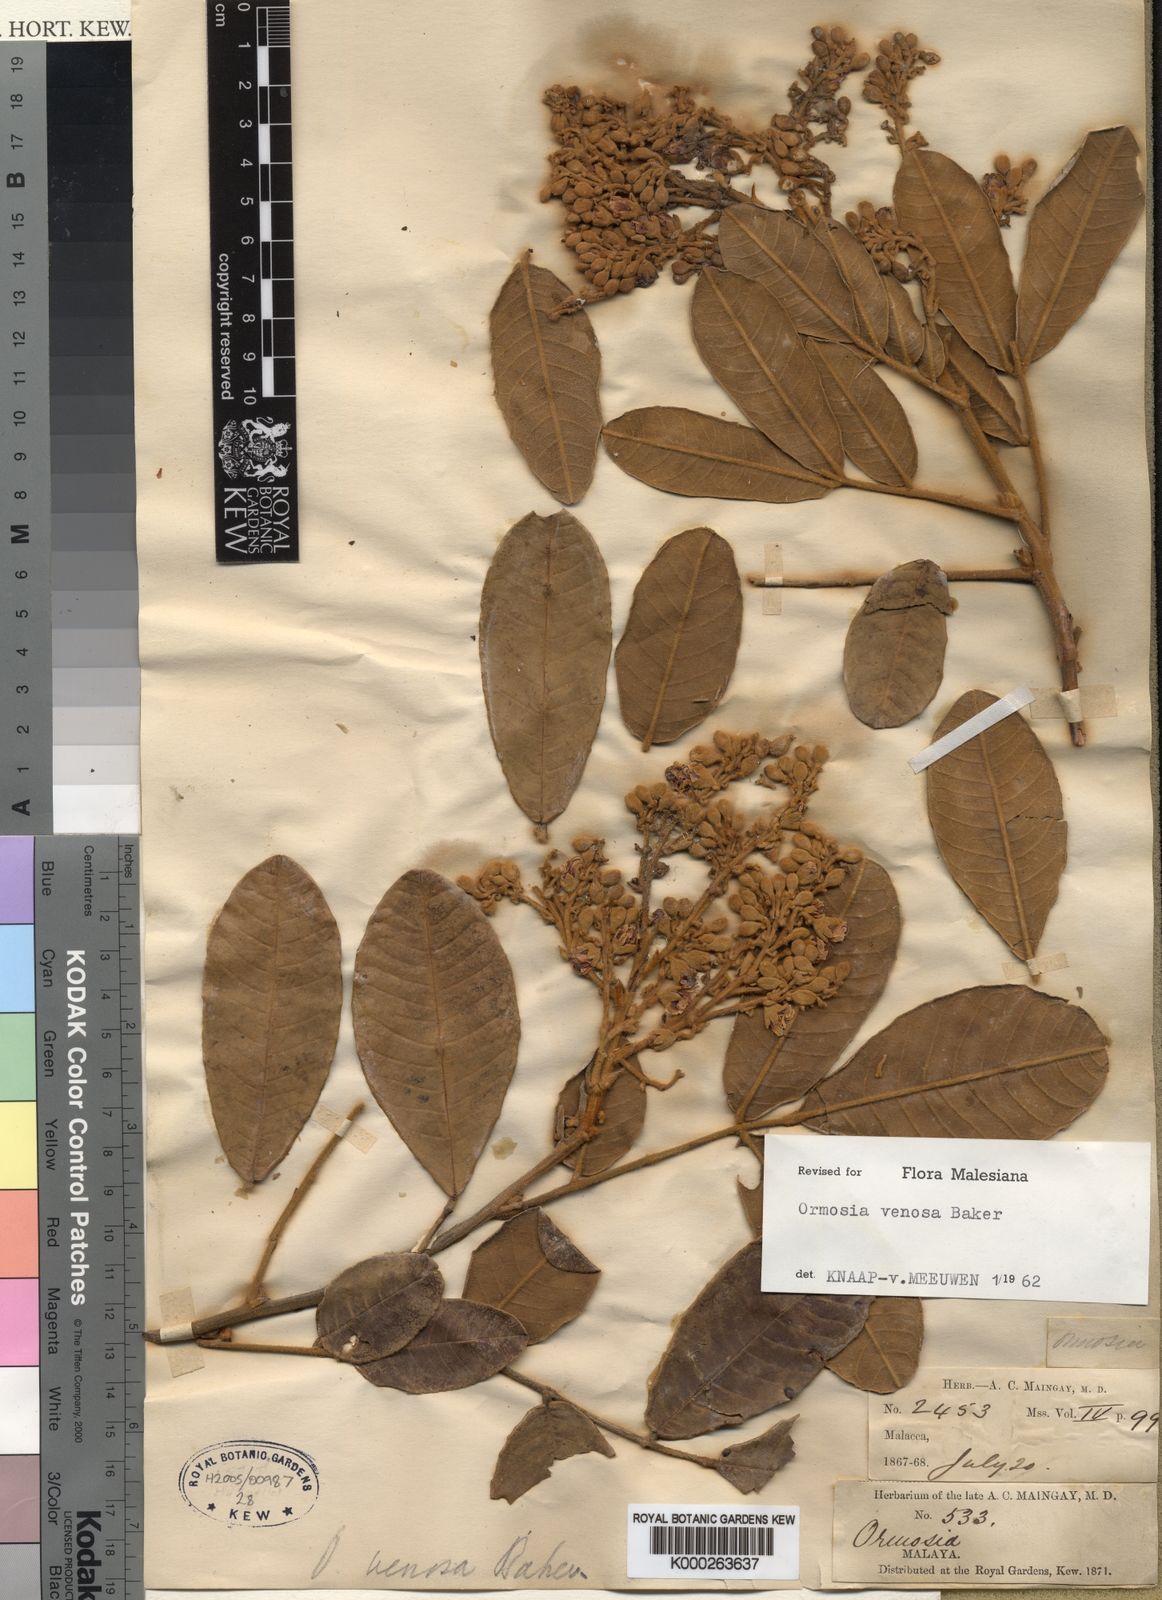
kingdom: Plantae
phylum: Tracheophyta
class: Magnoliopsida
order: Fabales
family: Fabaceae
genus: Ormosia
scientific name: Ormosia venosa
